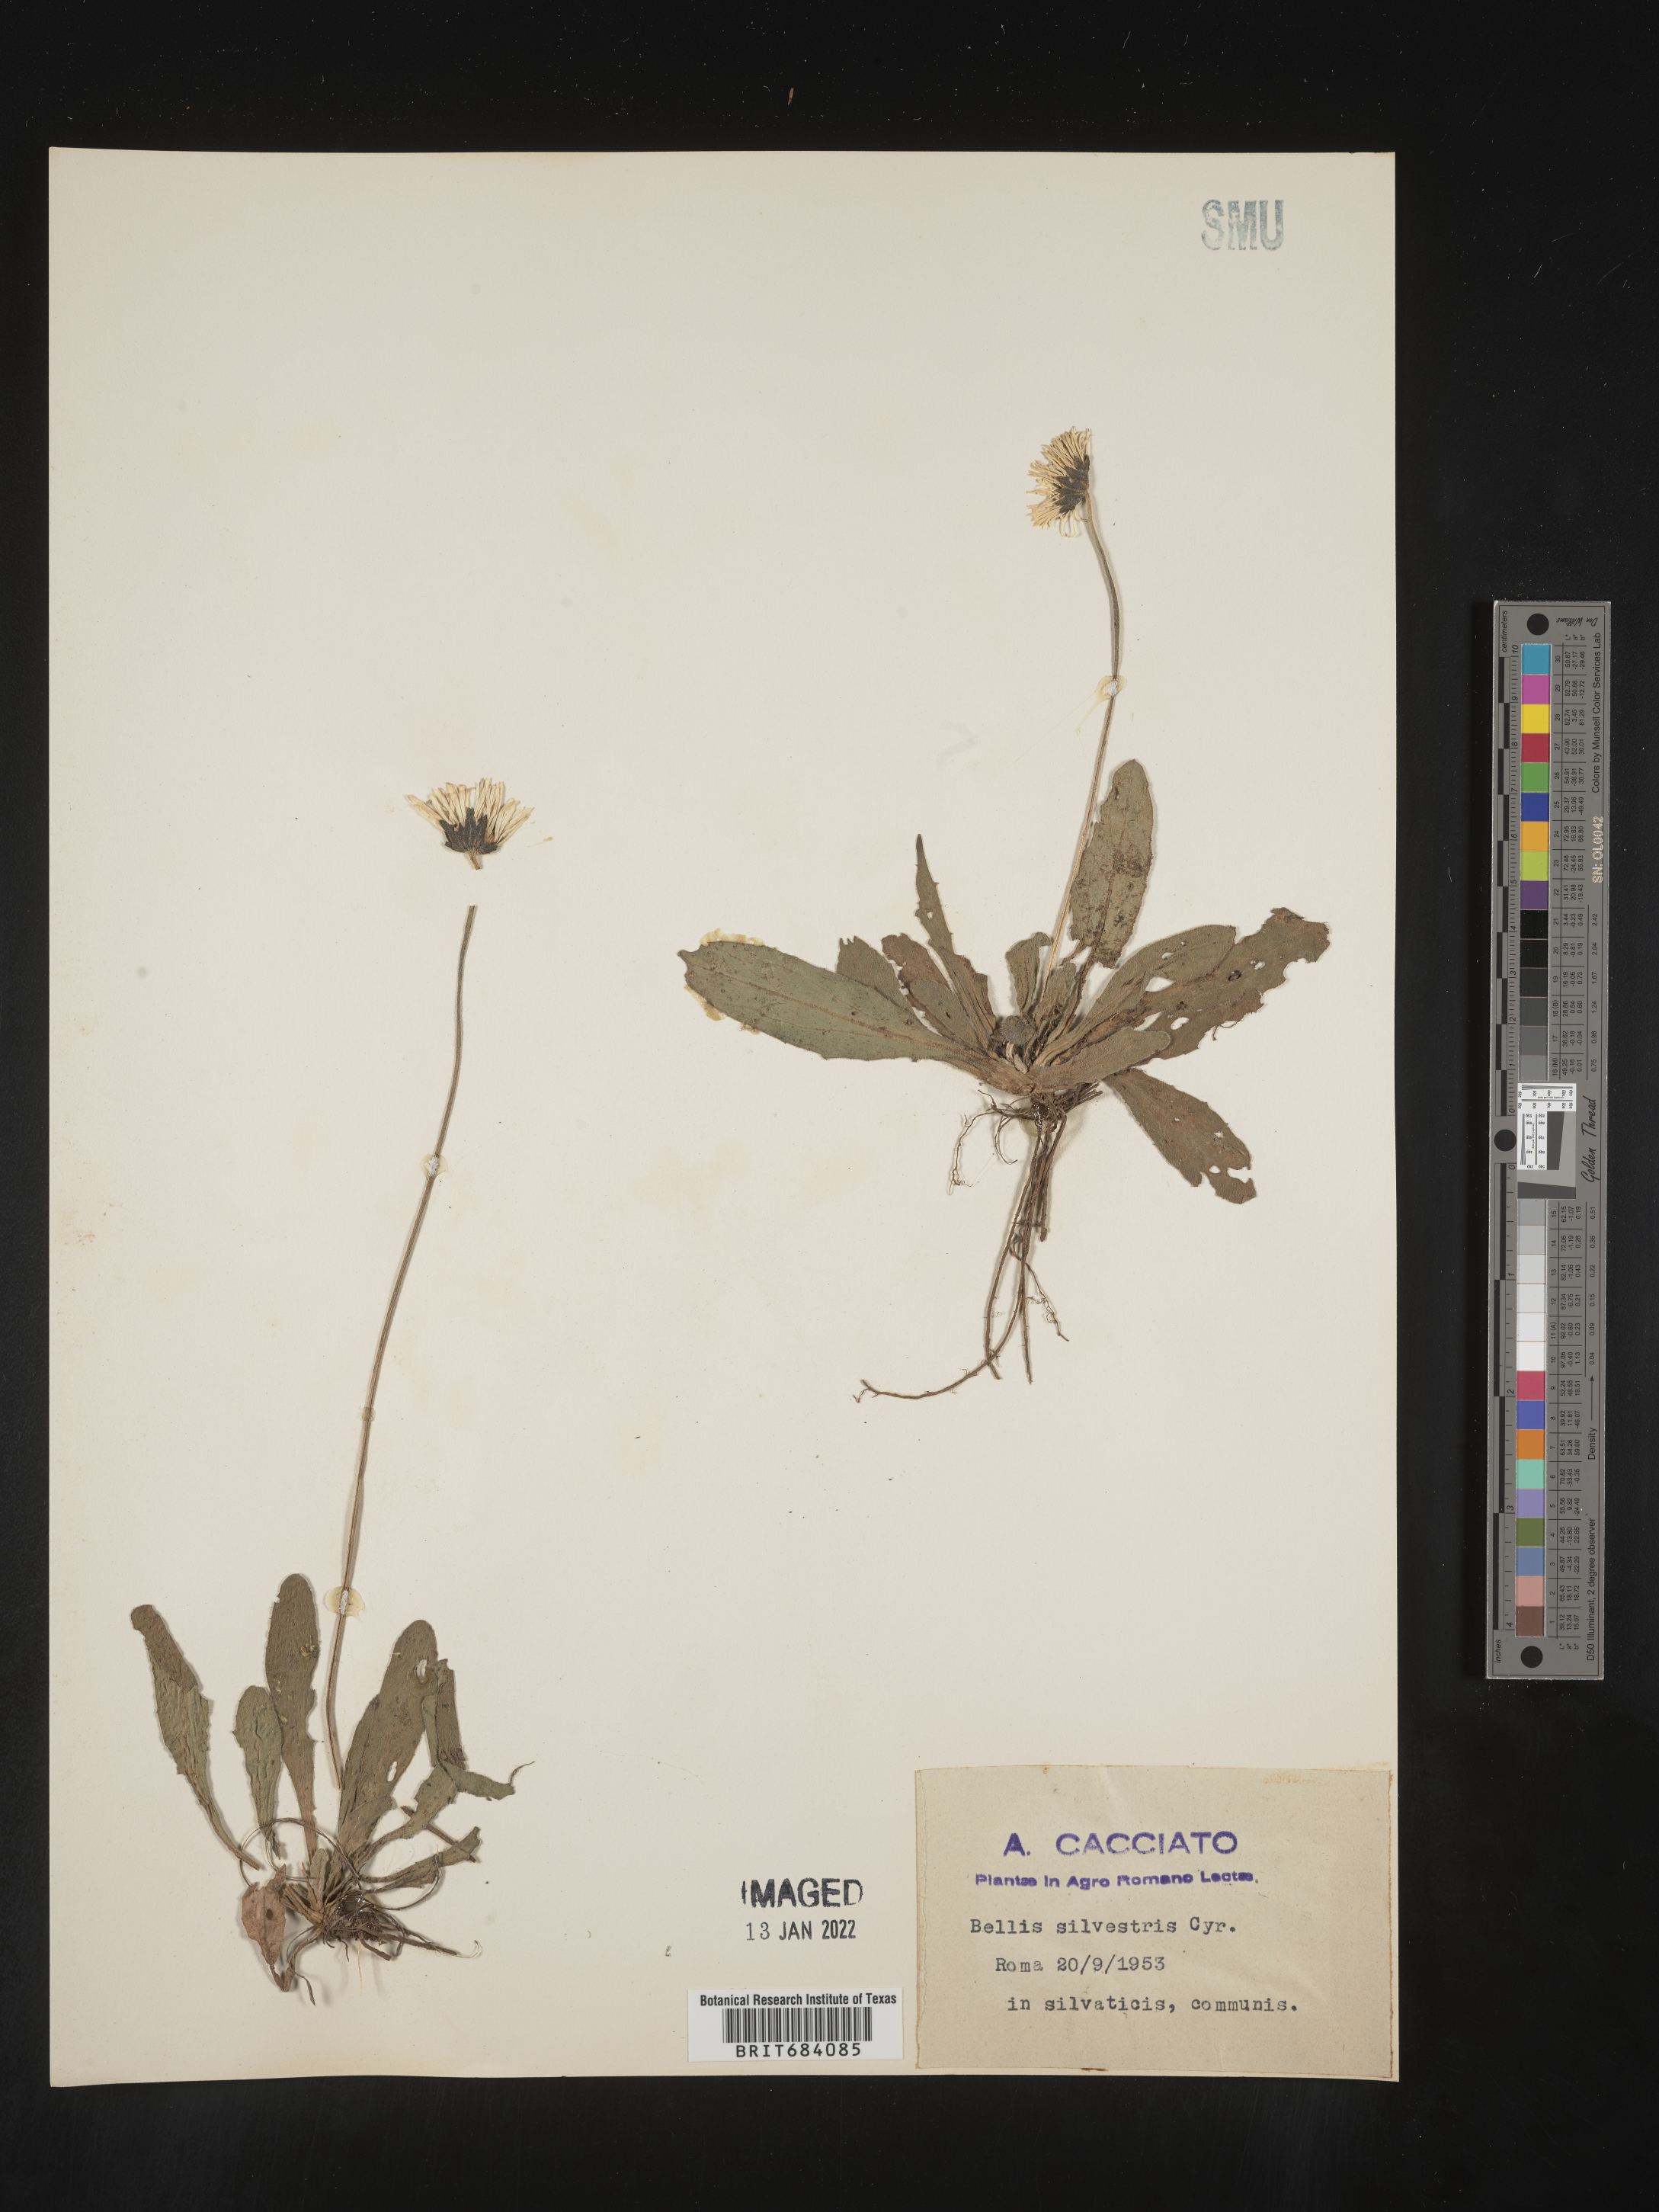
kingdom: Plantae
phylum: Tracheophyta
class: Magnoliopsida
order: Asterales
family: Asteraceae
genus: Bellis
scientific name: Bellis
